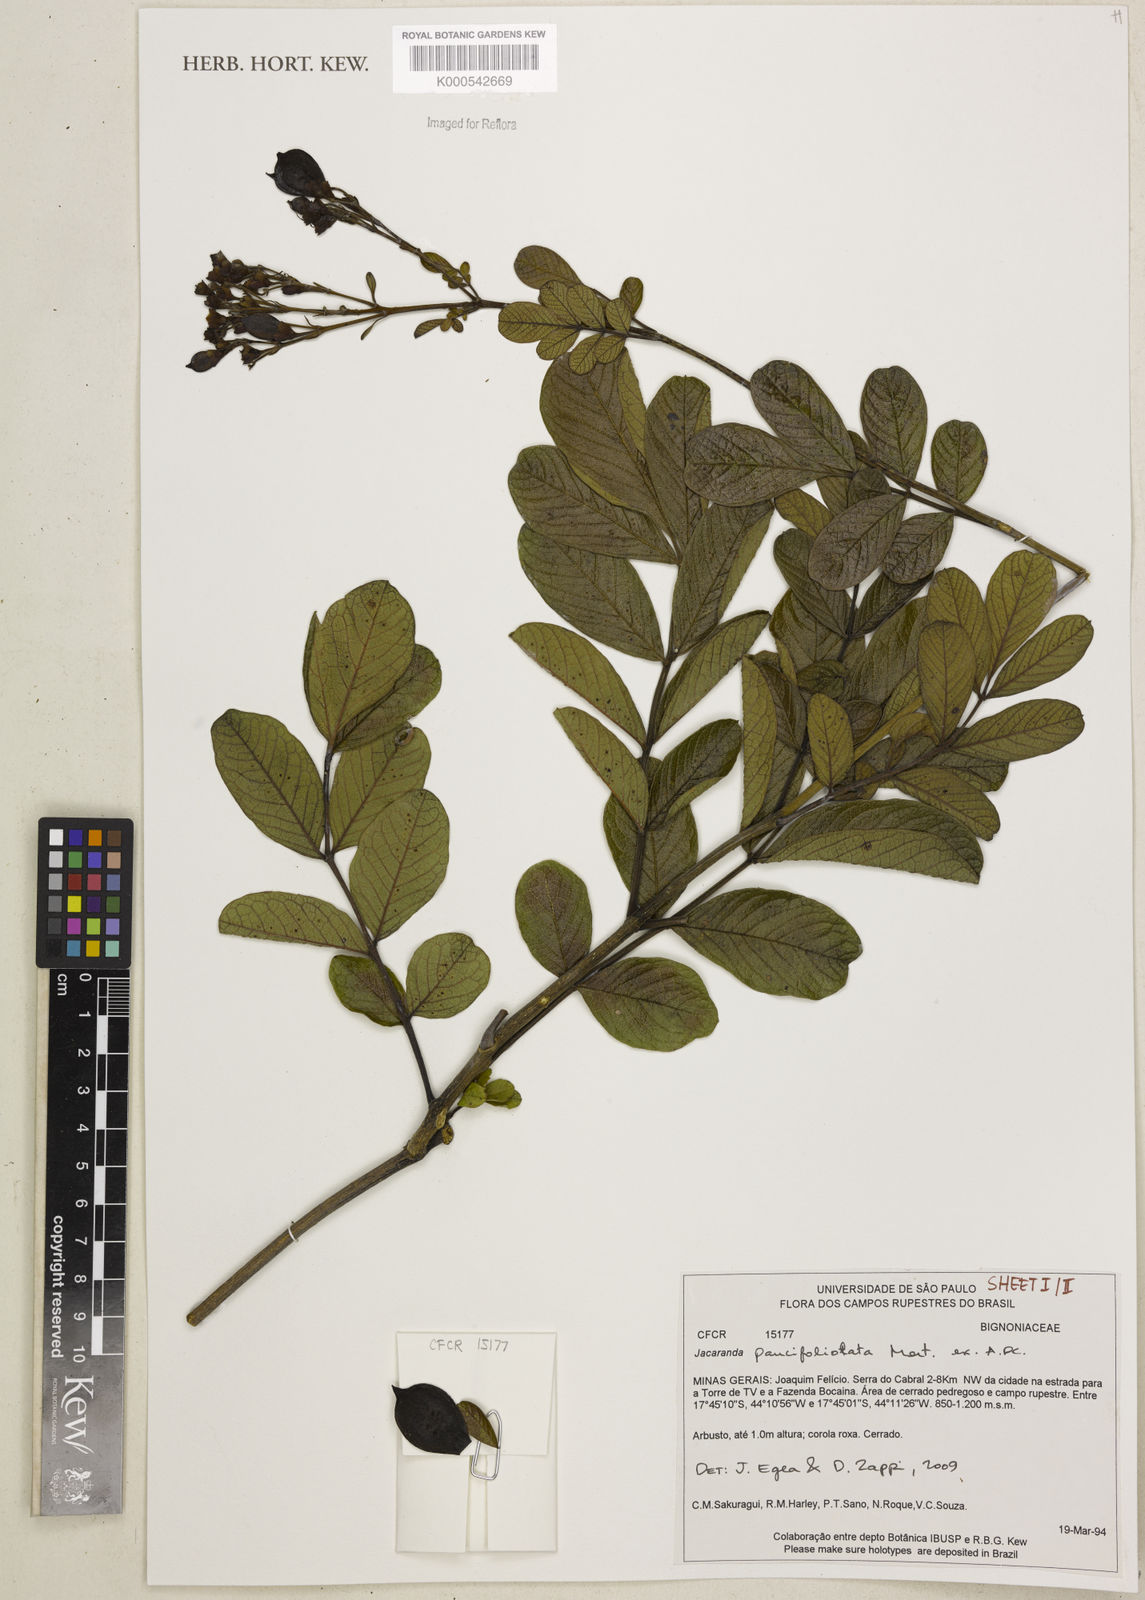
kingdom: Plantae
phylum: Tracheophyta
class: Magnoliopsida
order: Lamiales
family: Bignoniaceae
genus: Jacaranda
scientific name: Jacaranda
